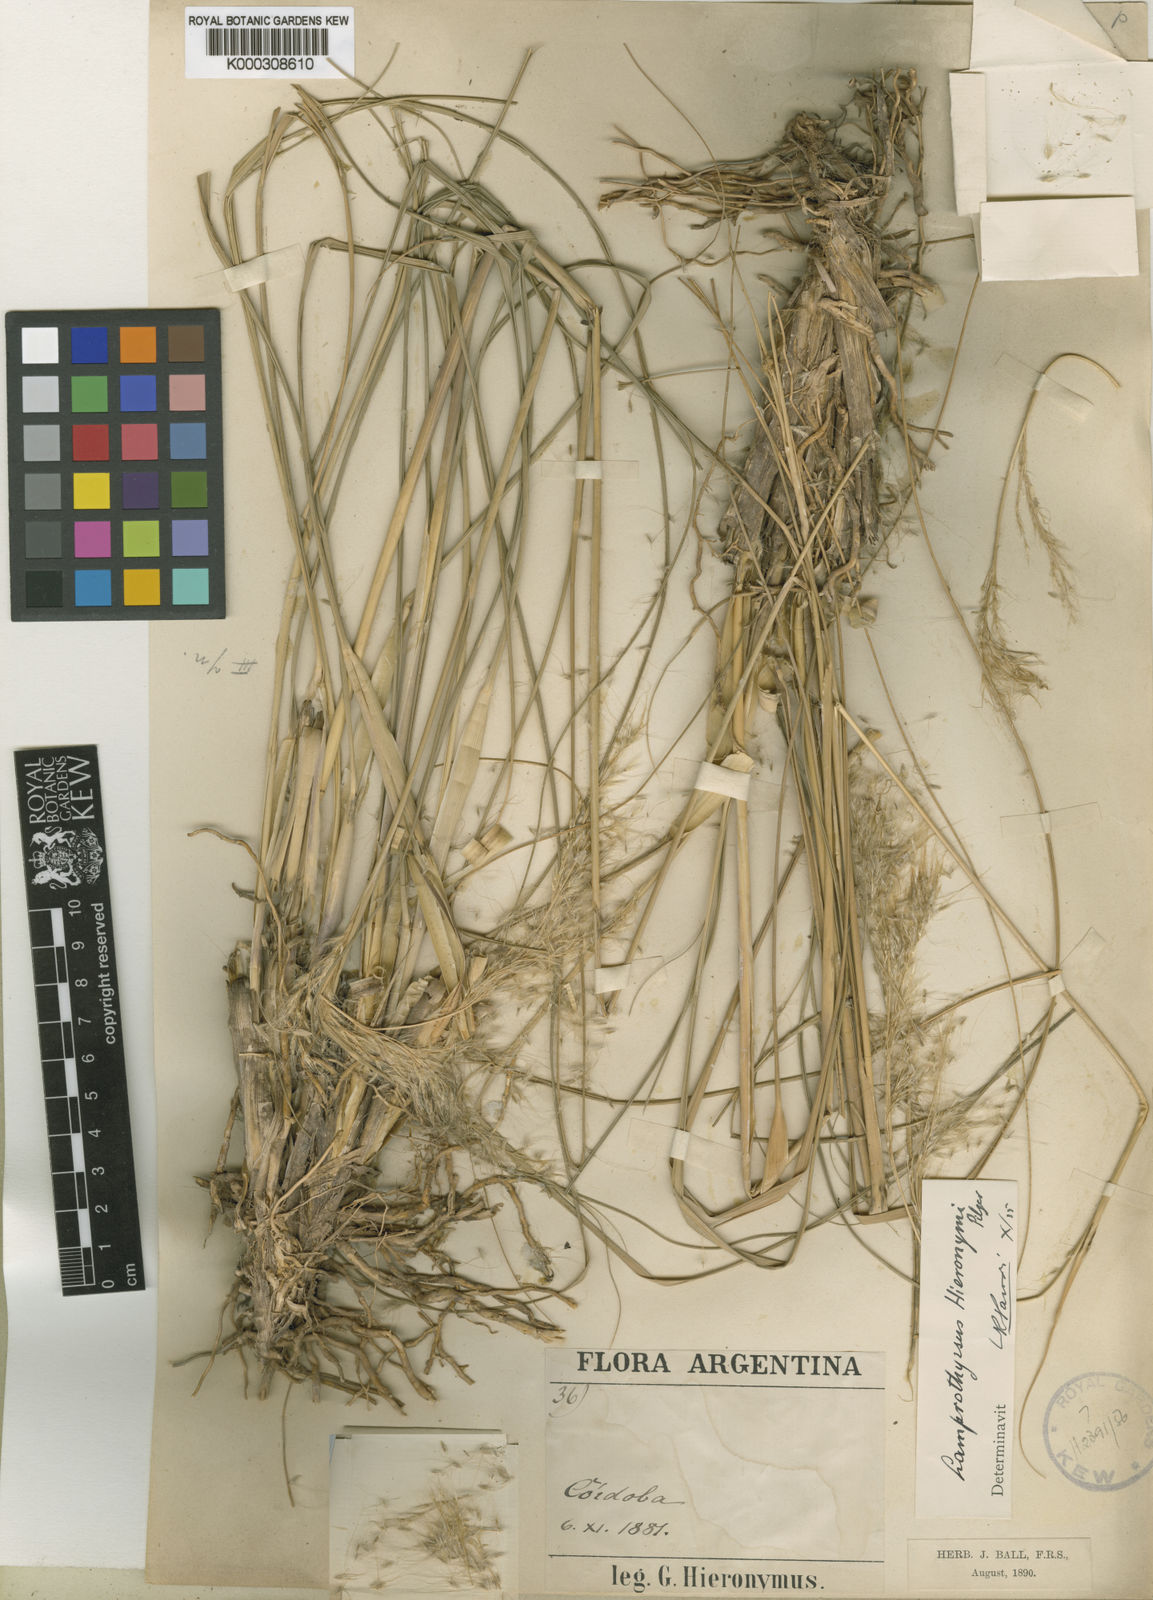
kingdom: Plantae
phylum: Tracheophyta
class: Liliopsida
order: Poales
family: Poaceae
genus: Cortaderia
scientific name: Cortaderia hieronymi
